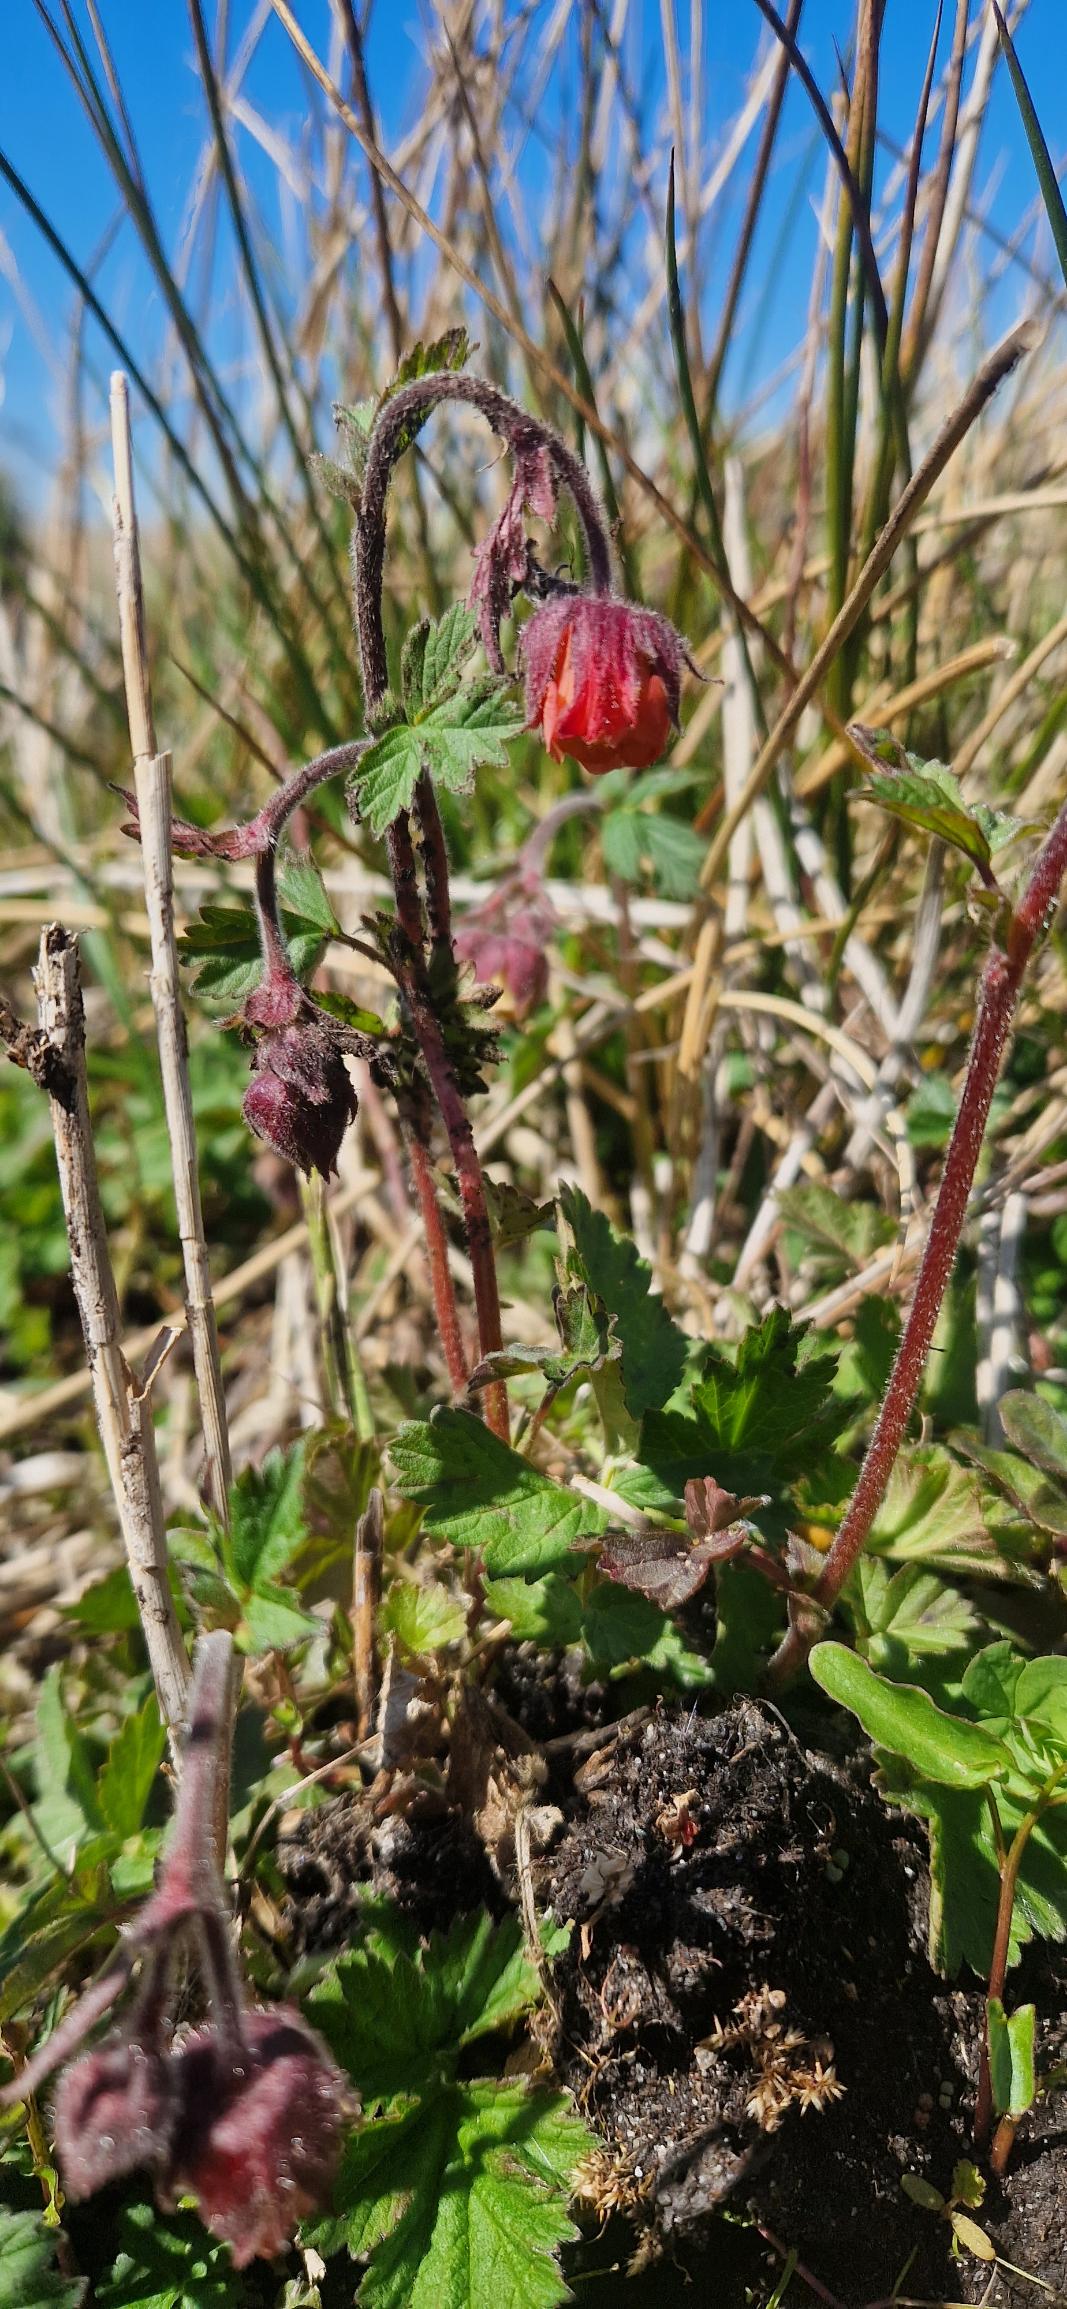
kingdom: Plantae
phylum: Tracheophyta
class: Magnoliopsida
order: Rosales
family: Rosaceae
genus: Geum
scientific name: Geum rivale
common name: Eng-nellikerod
